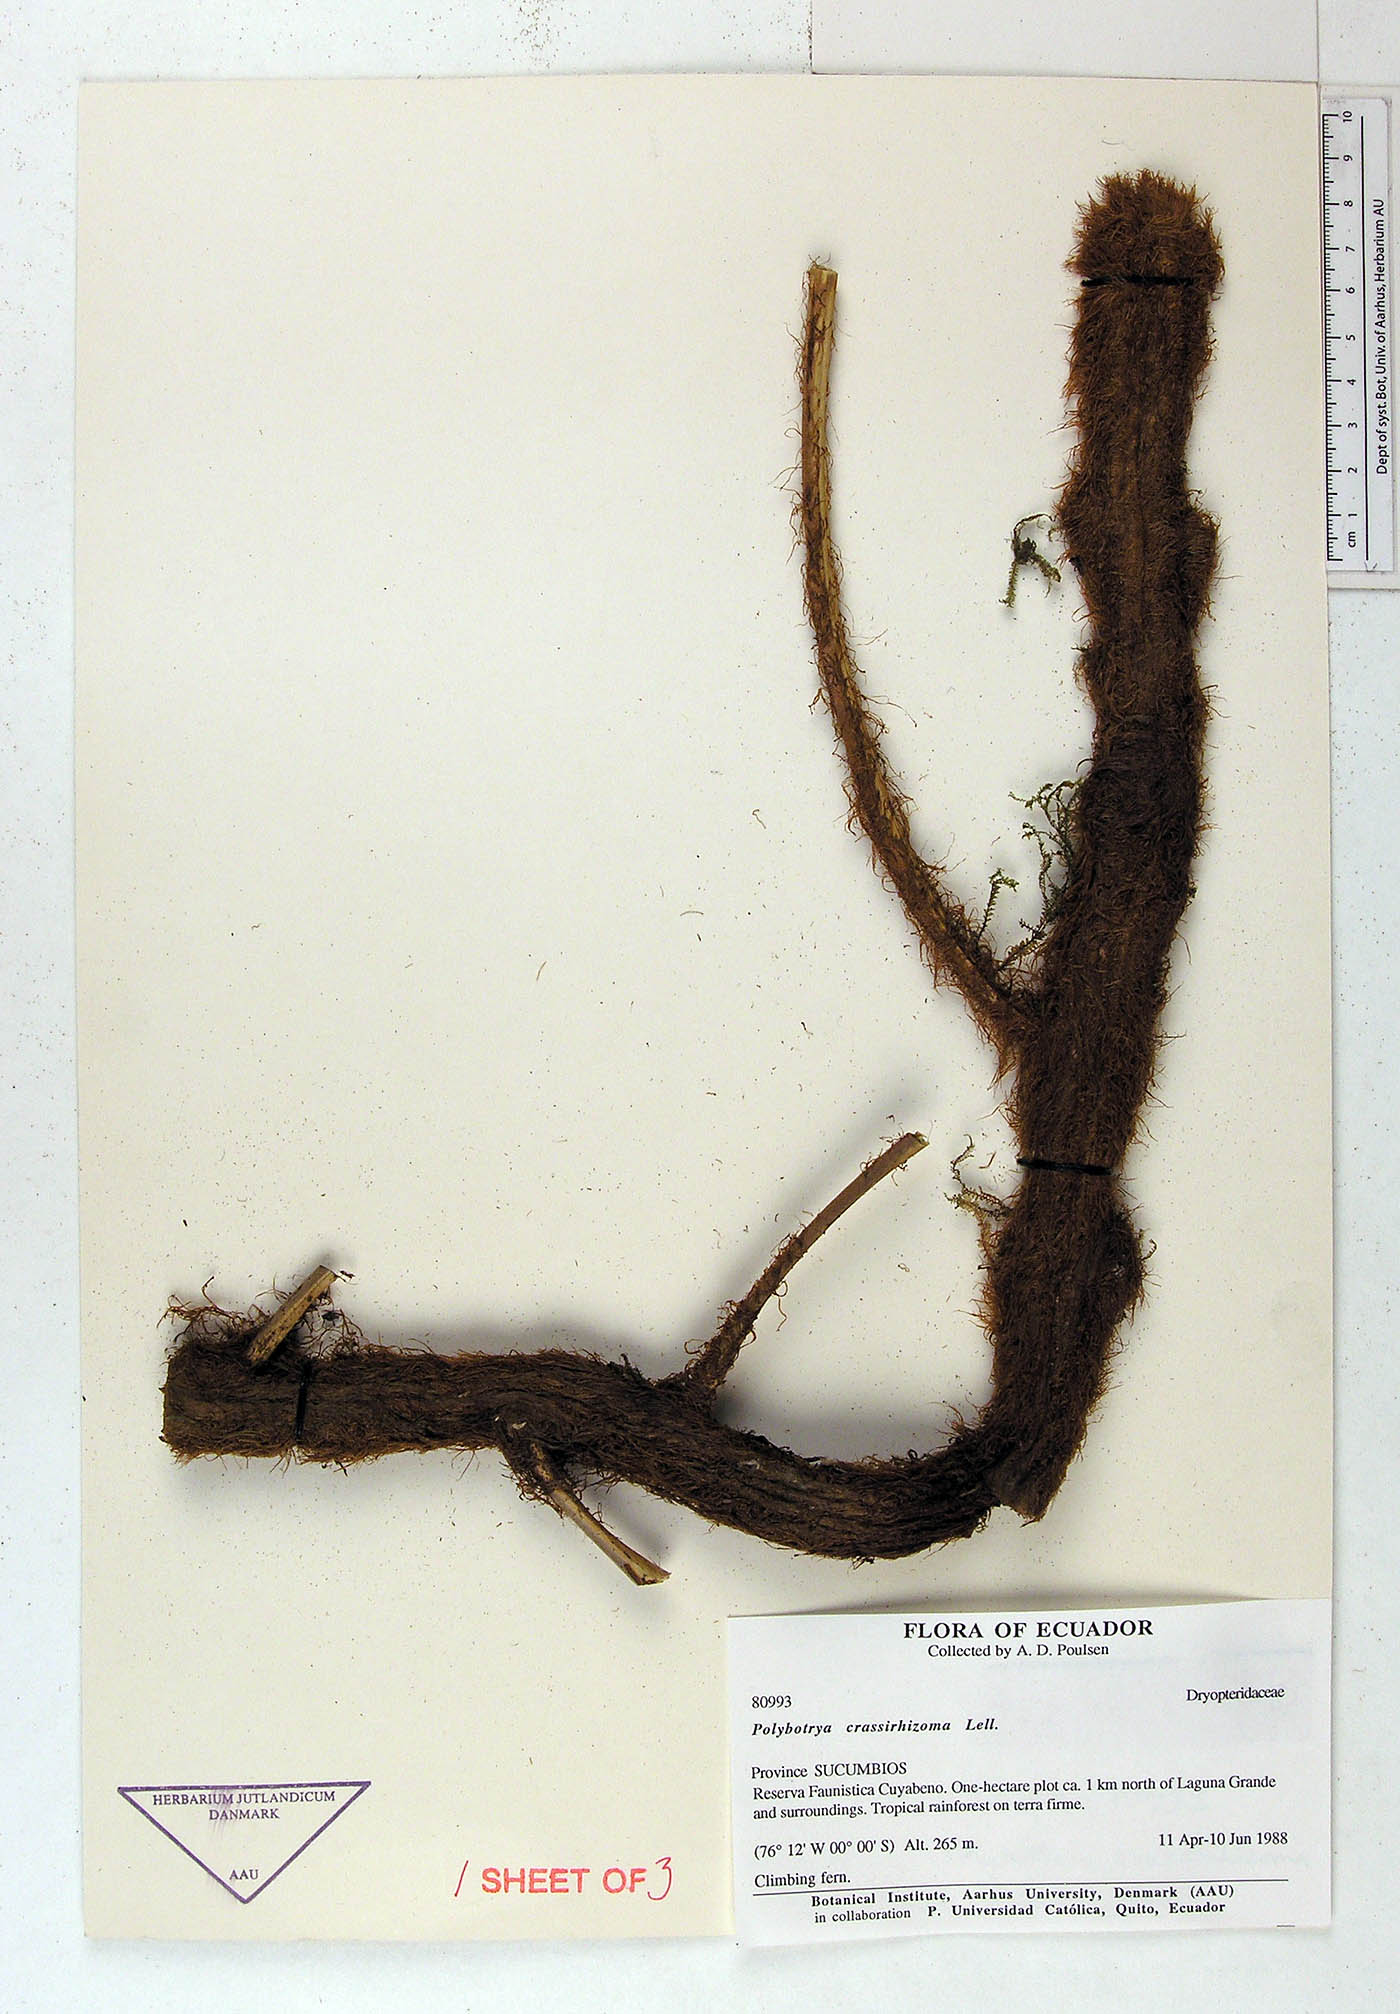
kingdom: Plantae
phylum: Tracheophyta
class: Polypodiopsida
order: Polypodiales
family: Dryopteridaceae
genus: Polybotrya
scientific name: Polybotrya crassirhizoma
